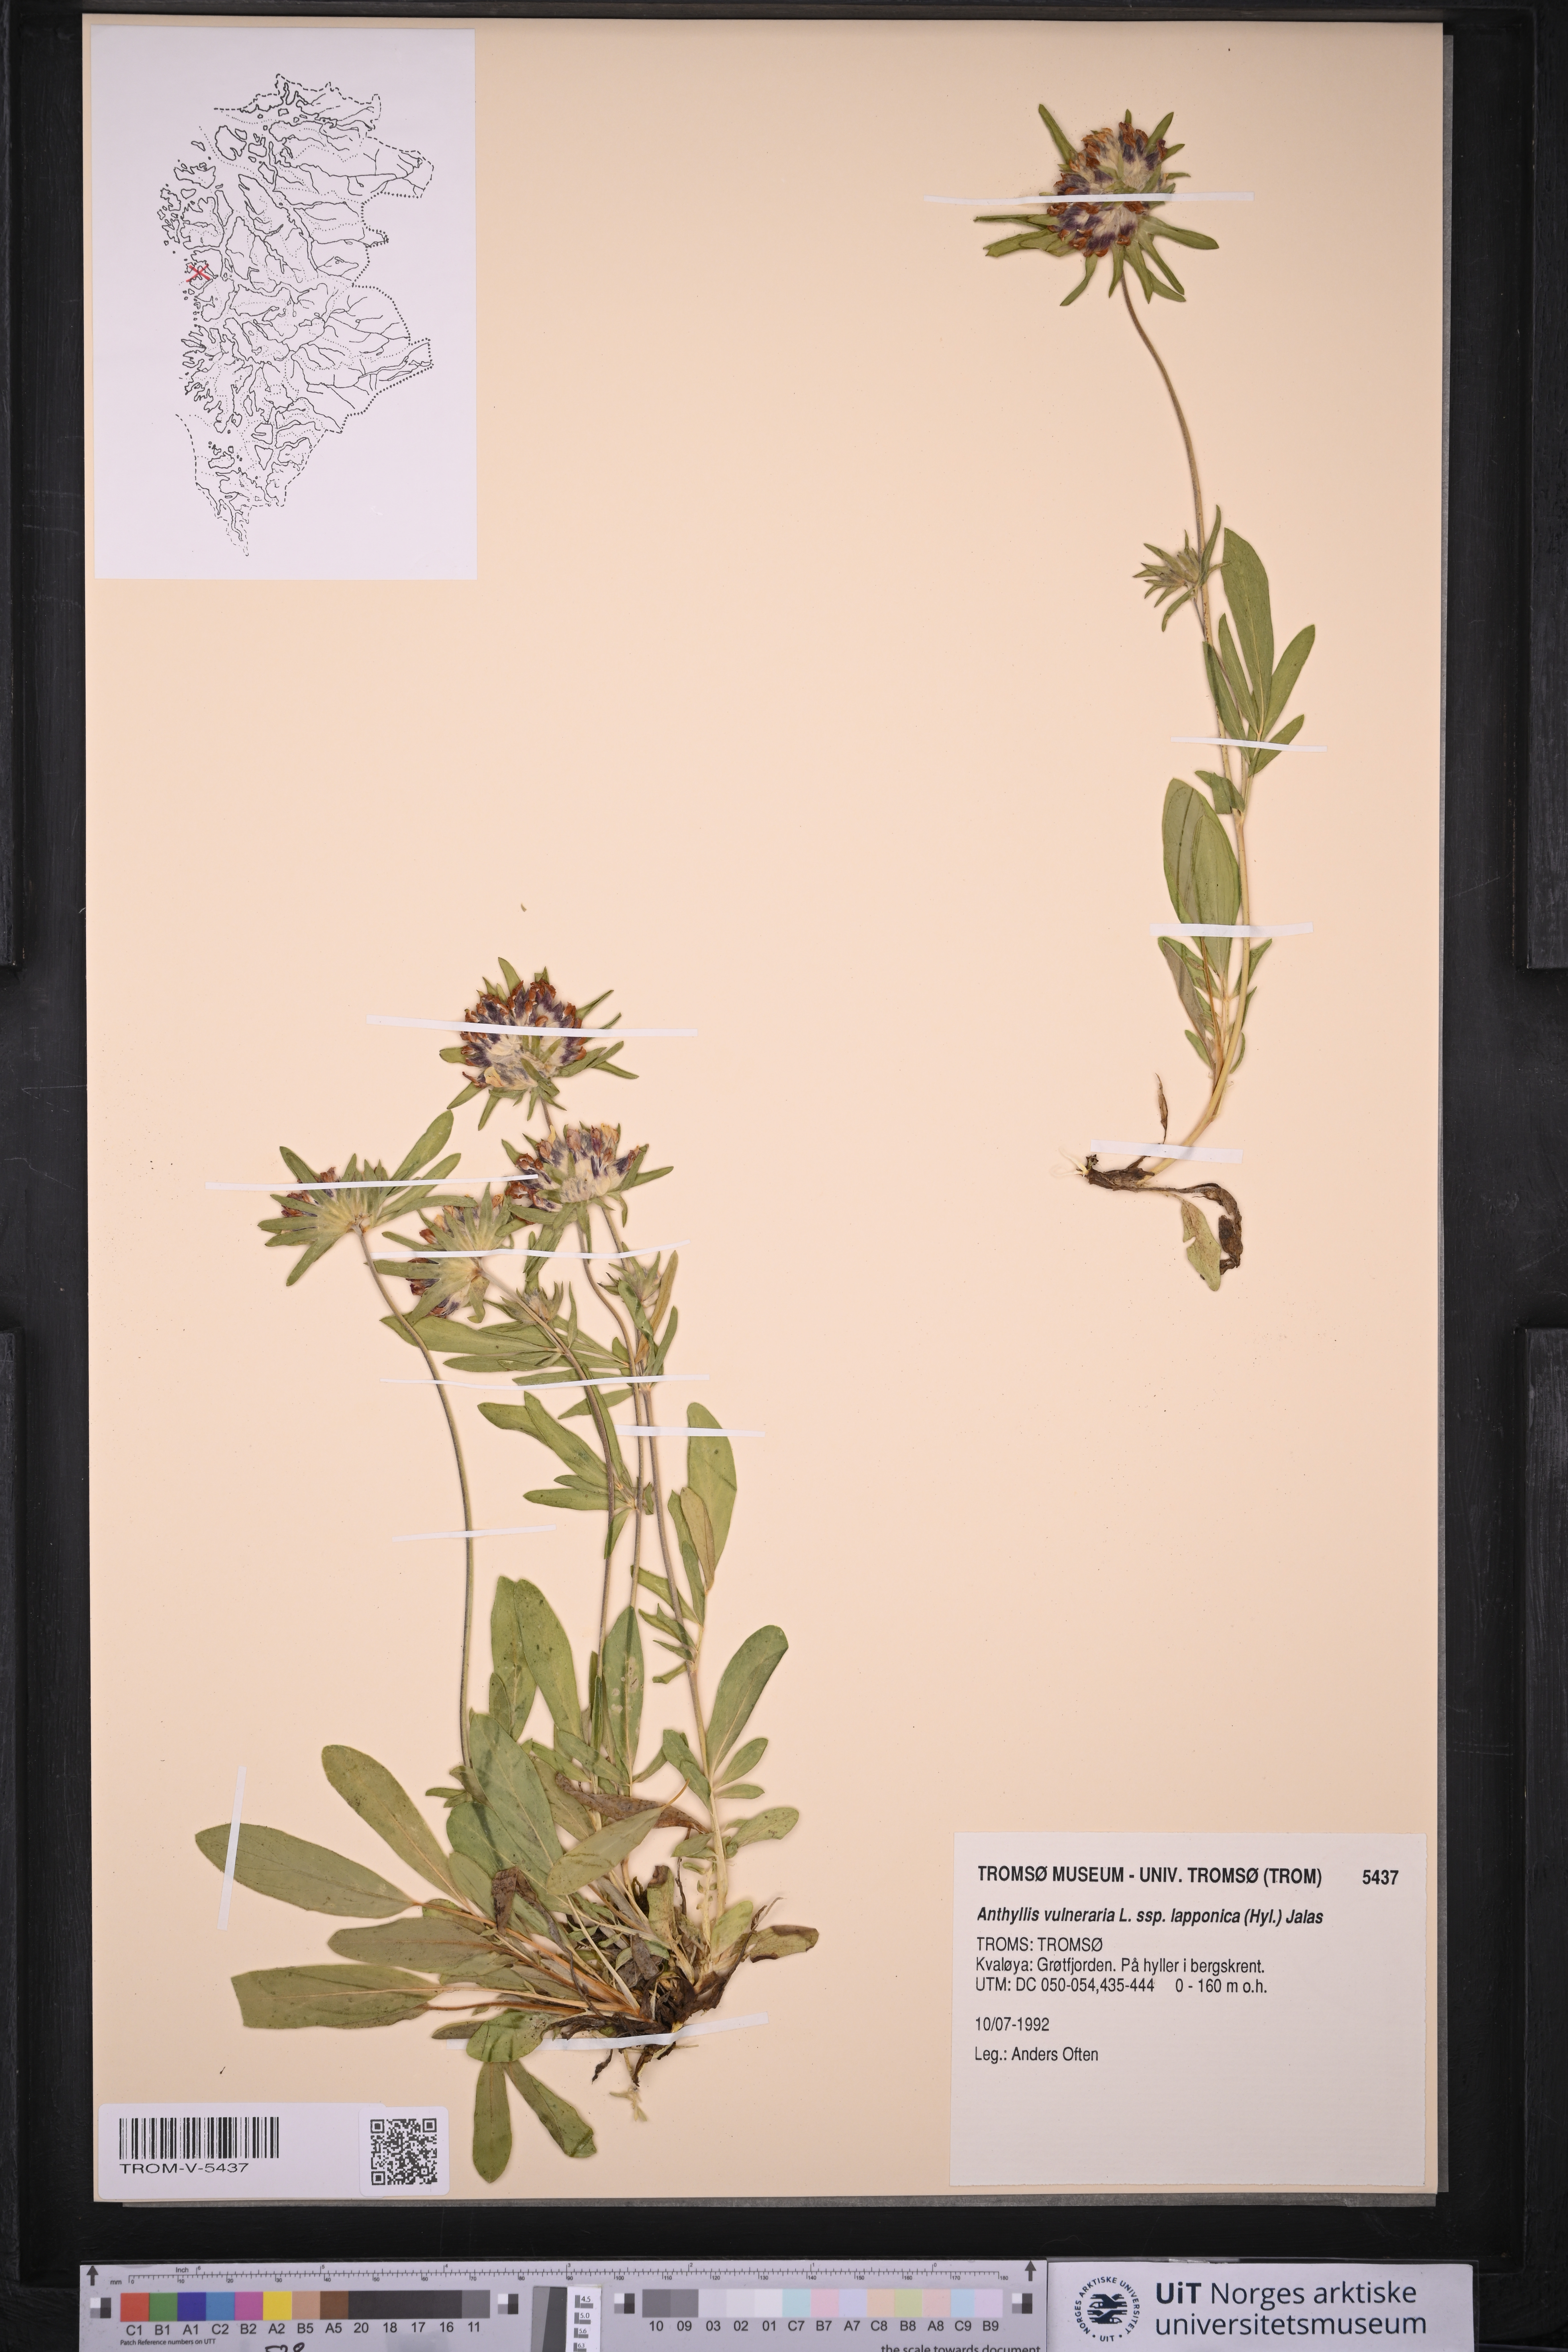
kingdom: Plantae
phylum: Tracheophyta
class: Magnoliopsida
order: Fabales
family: Fabaceae
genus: Anthyllis
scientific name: Anthyllis vulneraria
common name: Kidney vetch
